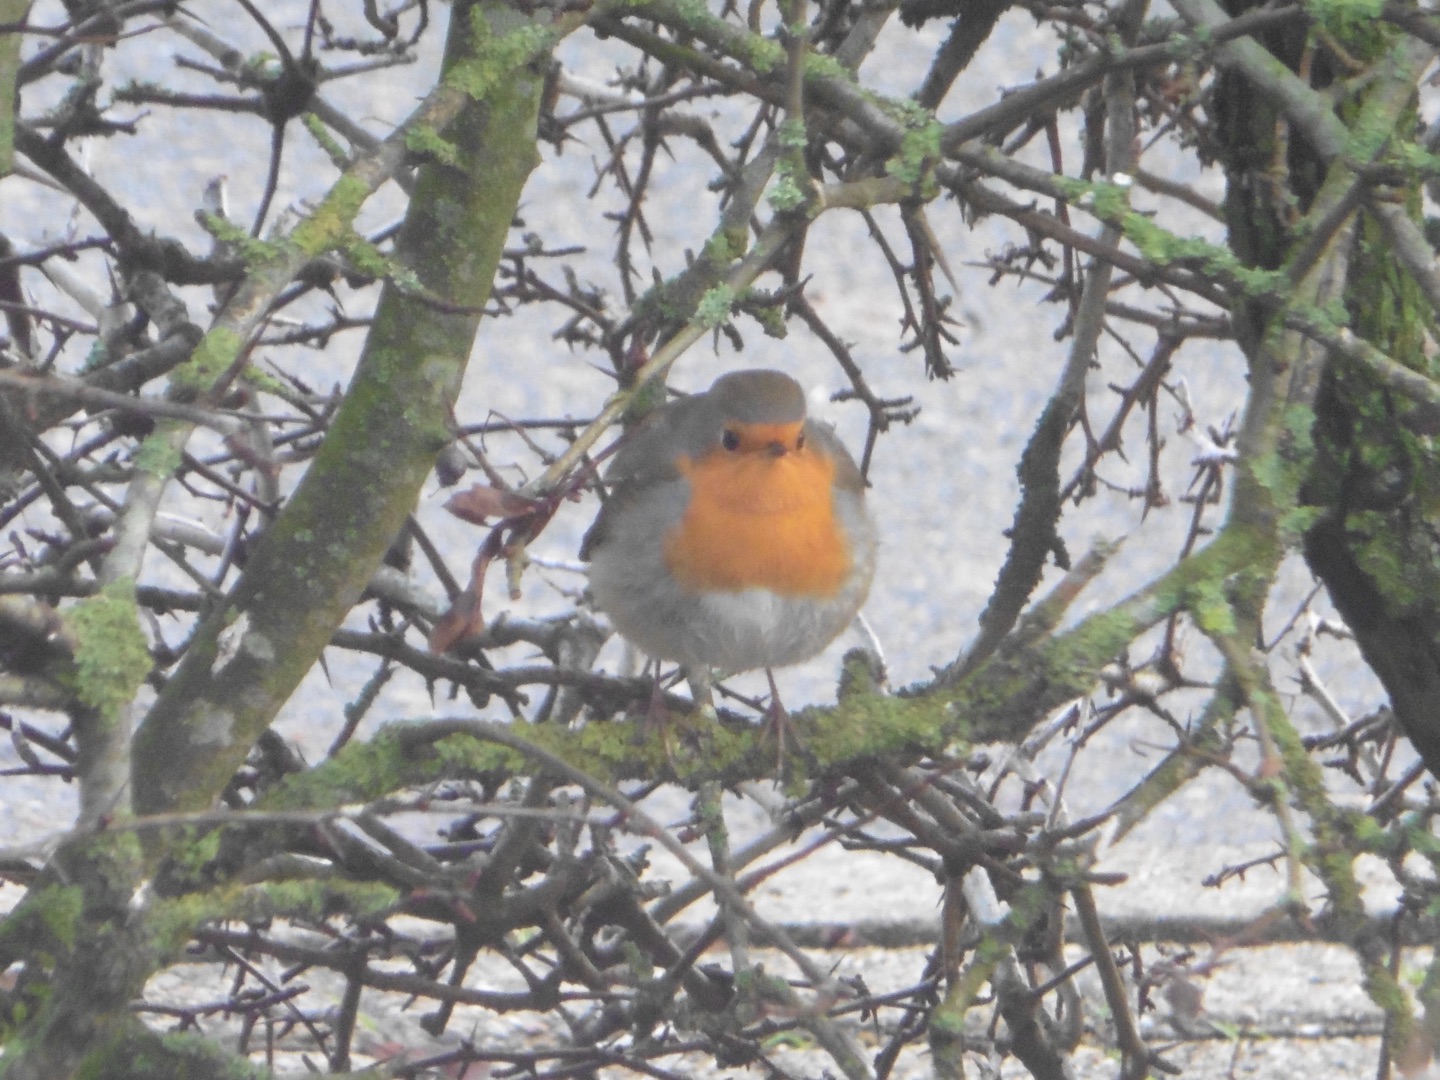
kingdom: Animalia
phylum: Chordata
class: Aves
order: Passeriformes
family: Muscicapidae
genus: Erithacus
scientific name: Erithacus rubecula
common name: Rødhals/rødkælk
